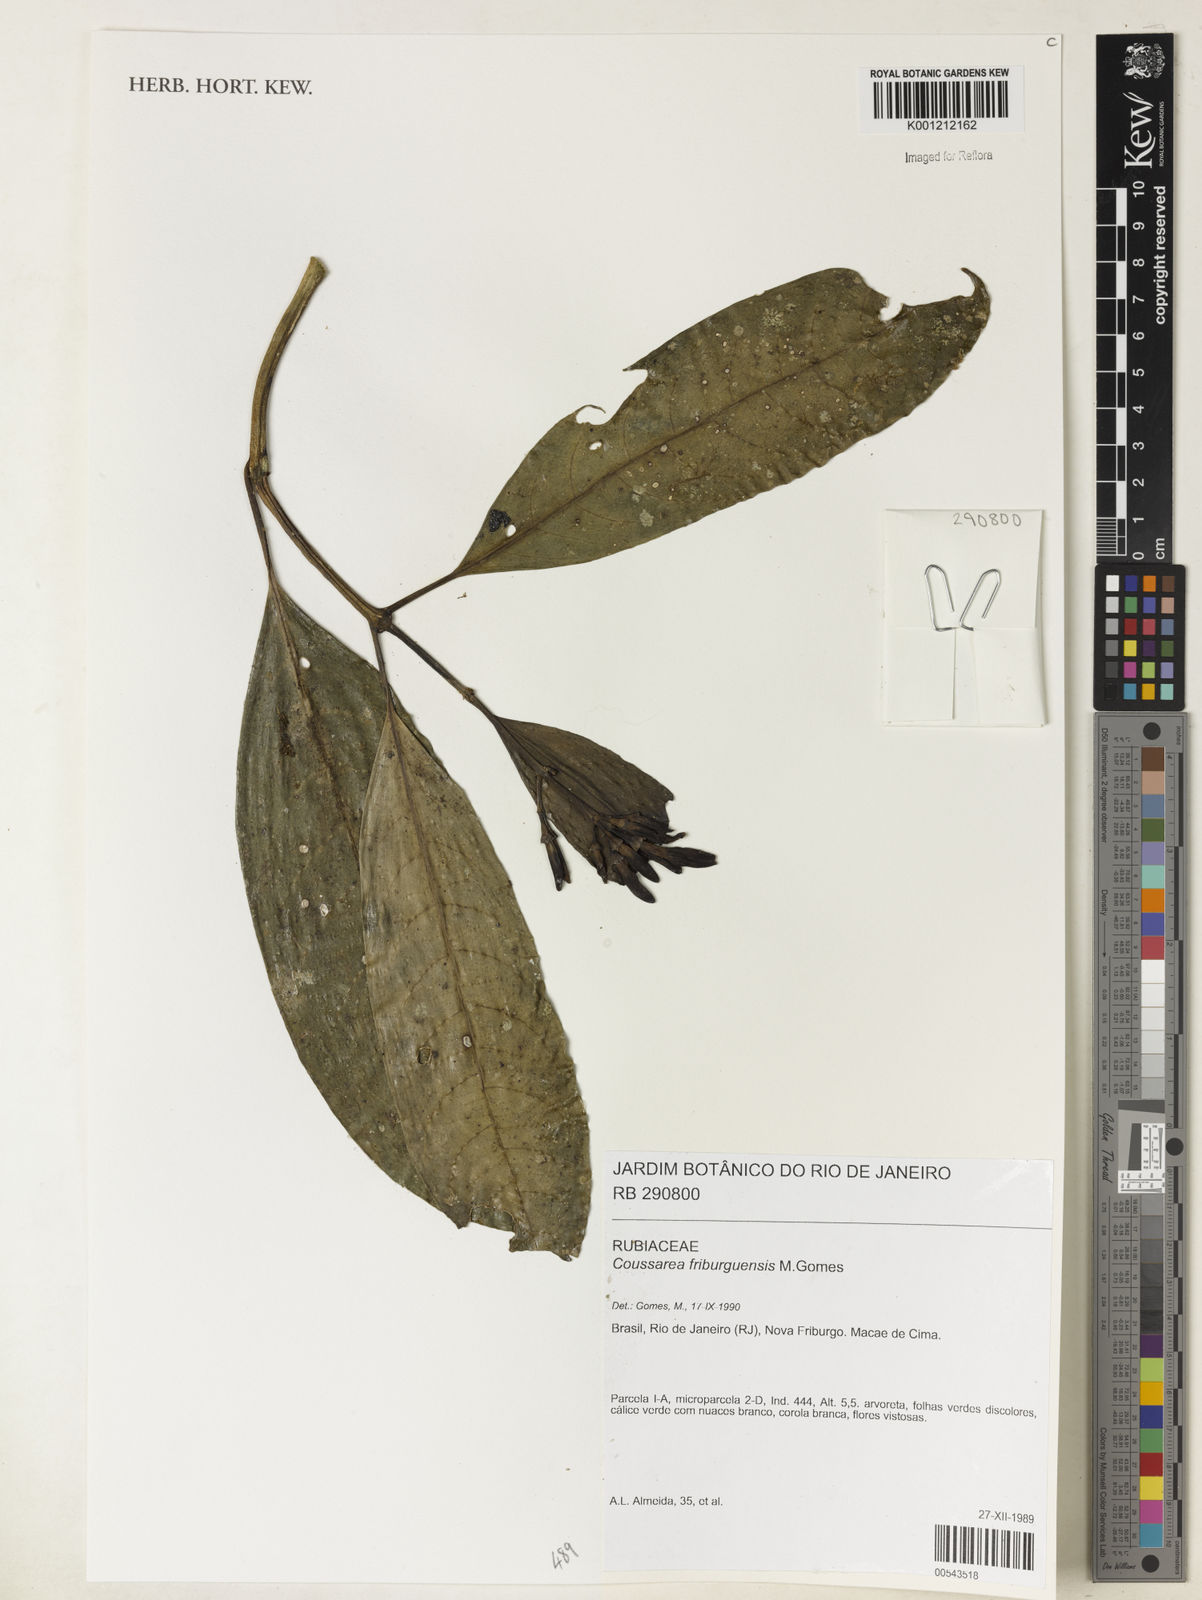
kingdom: Plantae
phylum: Tracheophyta
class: Magnoliopsida
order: Gentianales
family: Rubiaceae
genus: Coussarea
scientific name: Coussarea friburgensis
